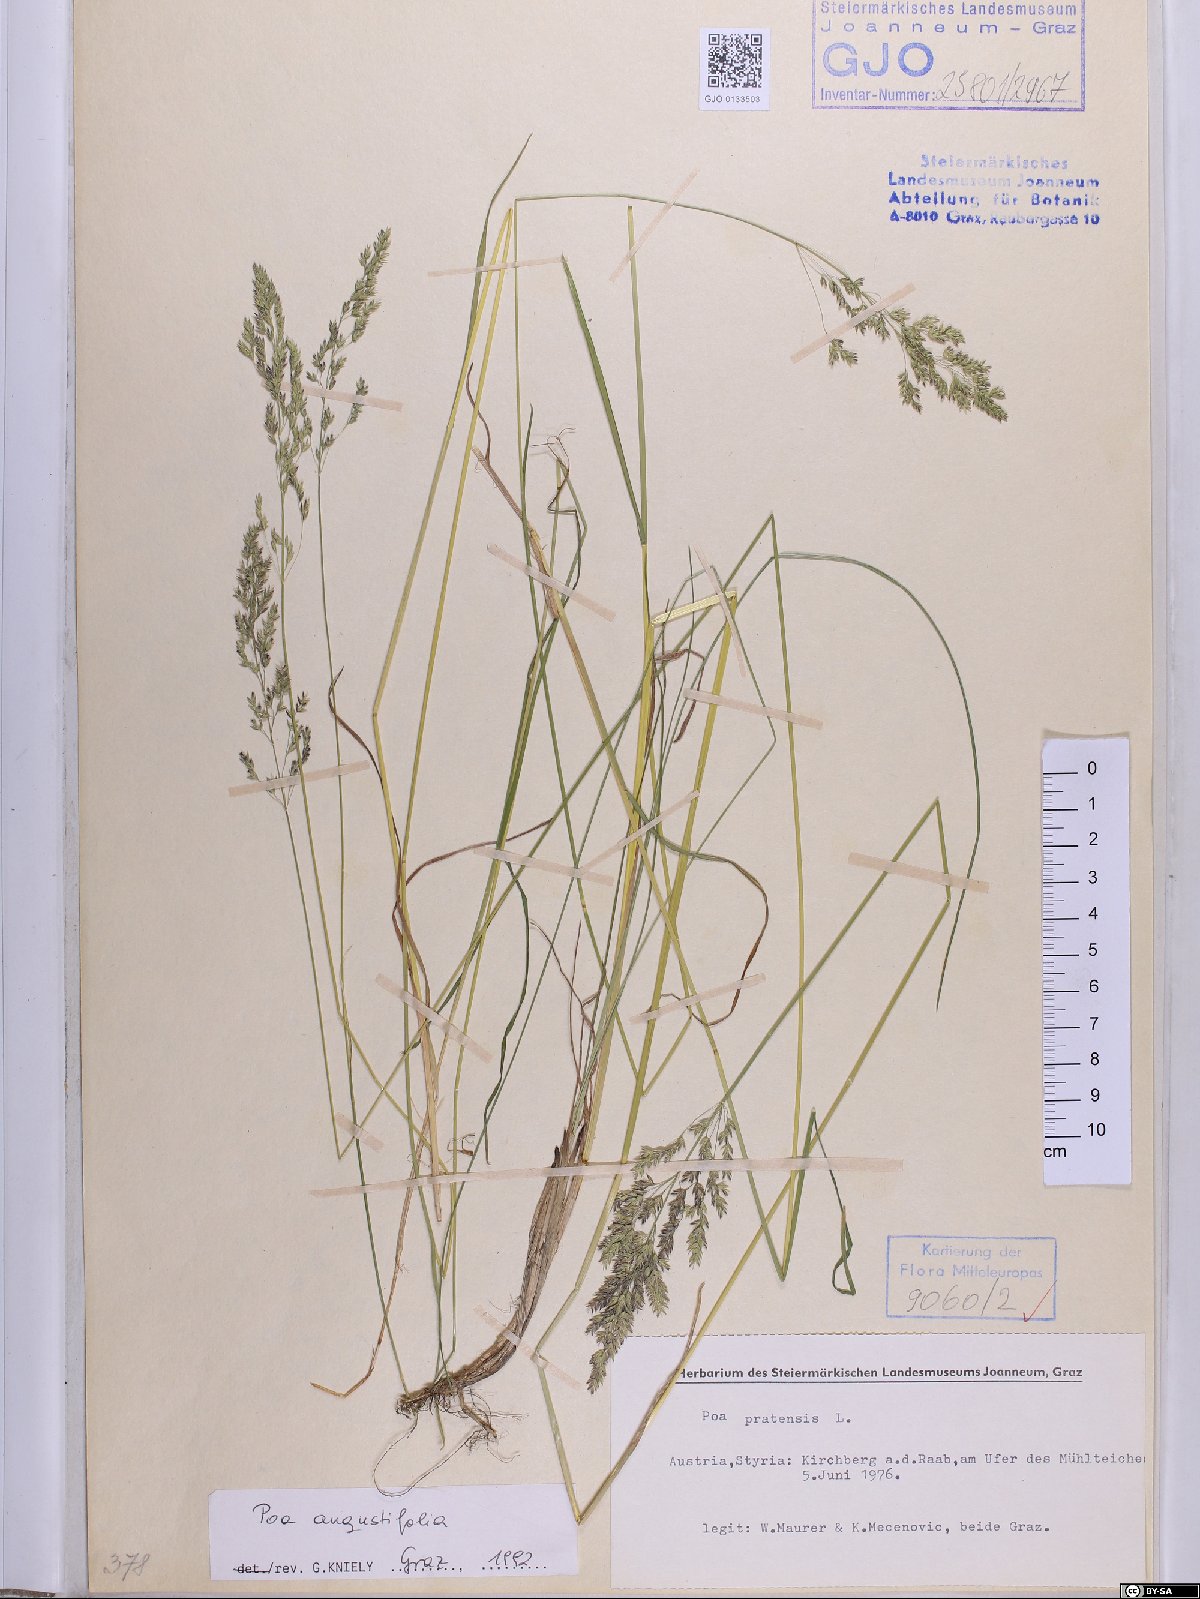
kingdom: Plantae
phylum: Tracheophyta
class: Liliopsida
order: Poales
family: Poaceae
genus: Poa
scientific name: Poa angustifolia
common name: Narrow-leaved meadow-grass
